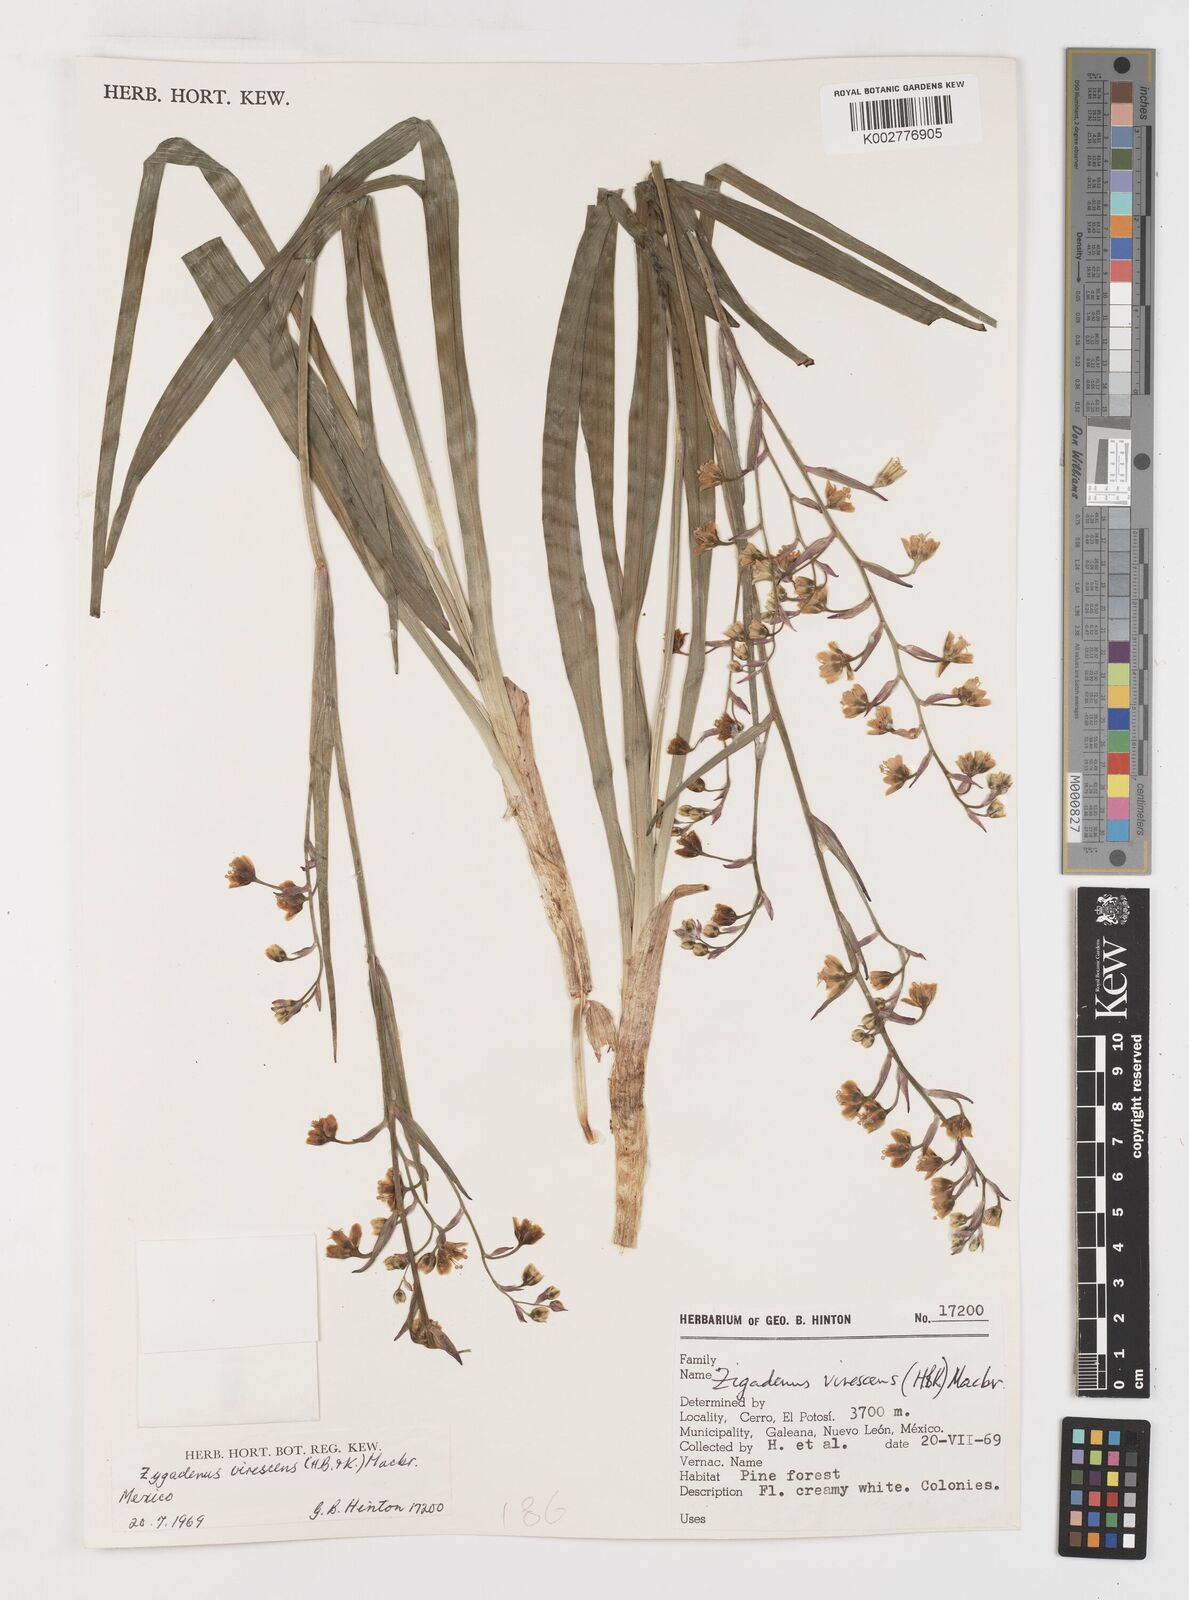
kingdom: Plantae
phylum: Tracheophyta
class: Liliopsida
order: Liliales
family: Melanthiaceae
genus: Anticlea
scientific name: Anticlea virescens
